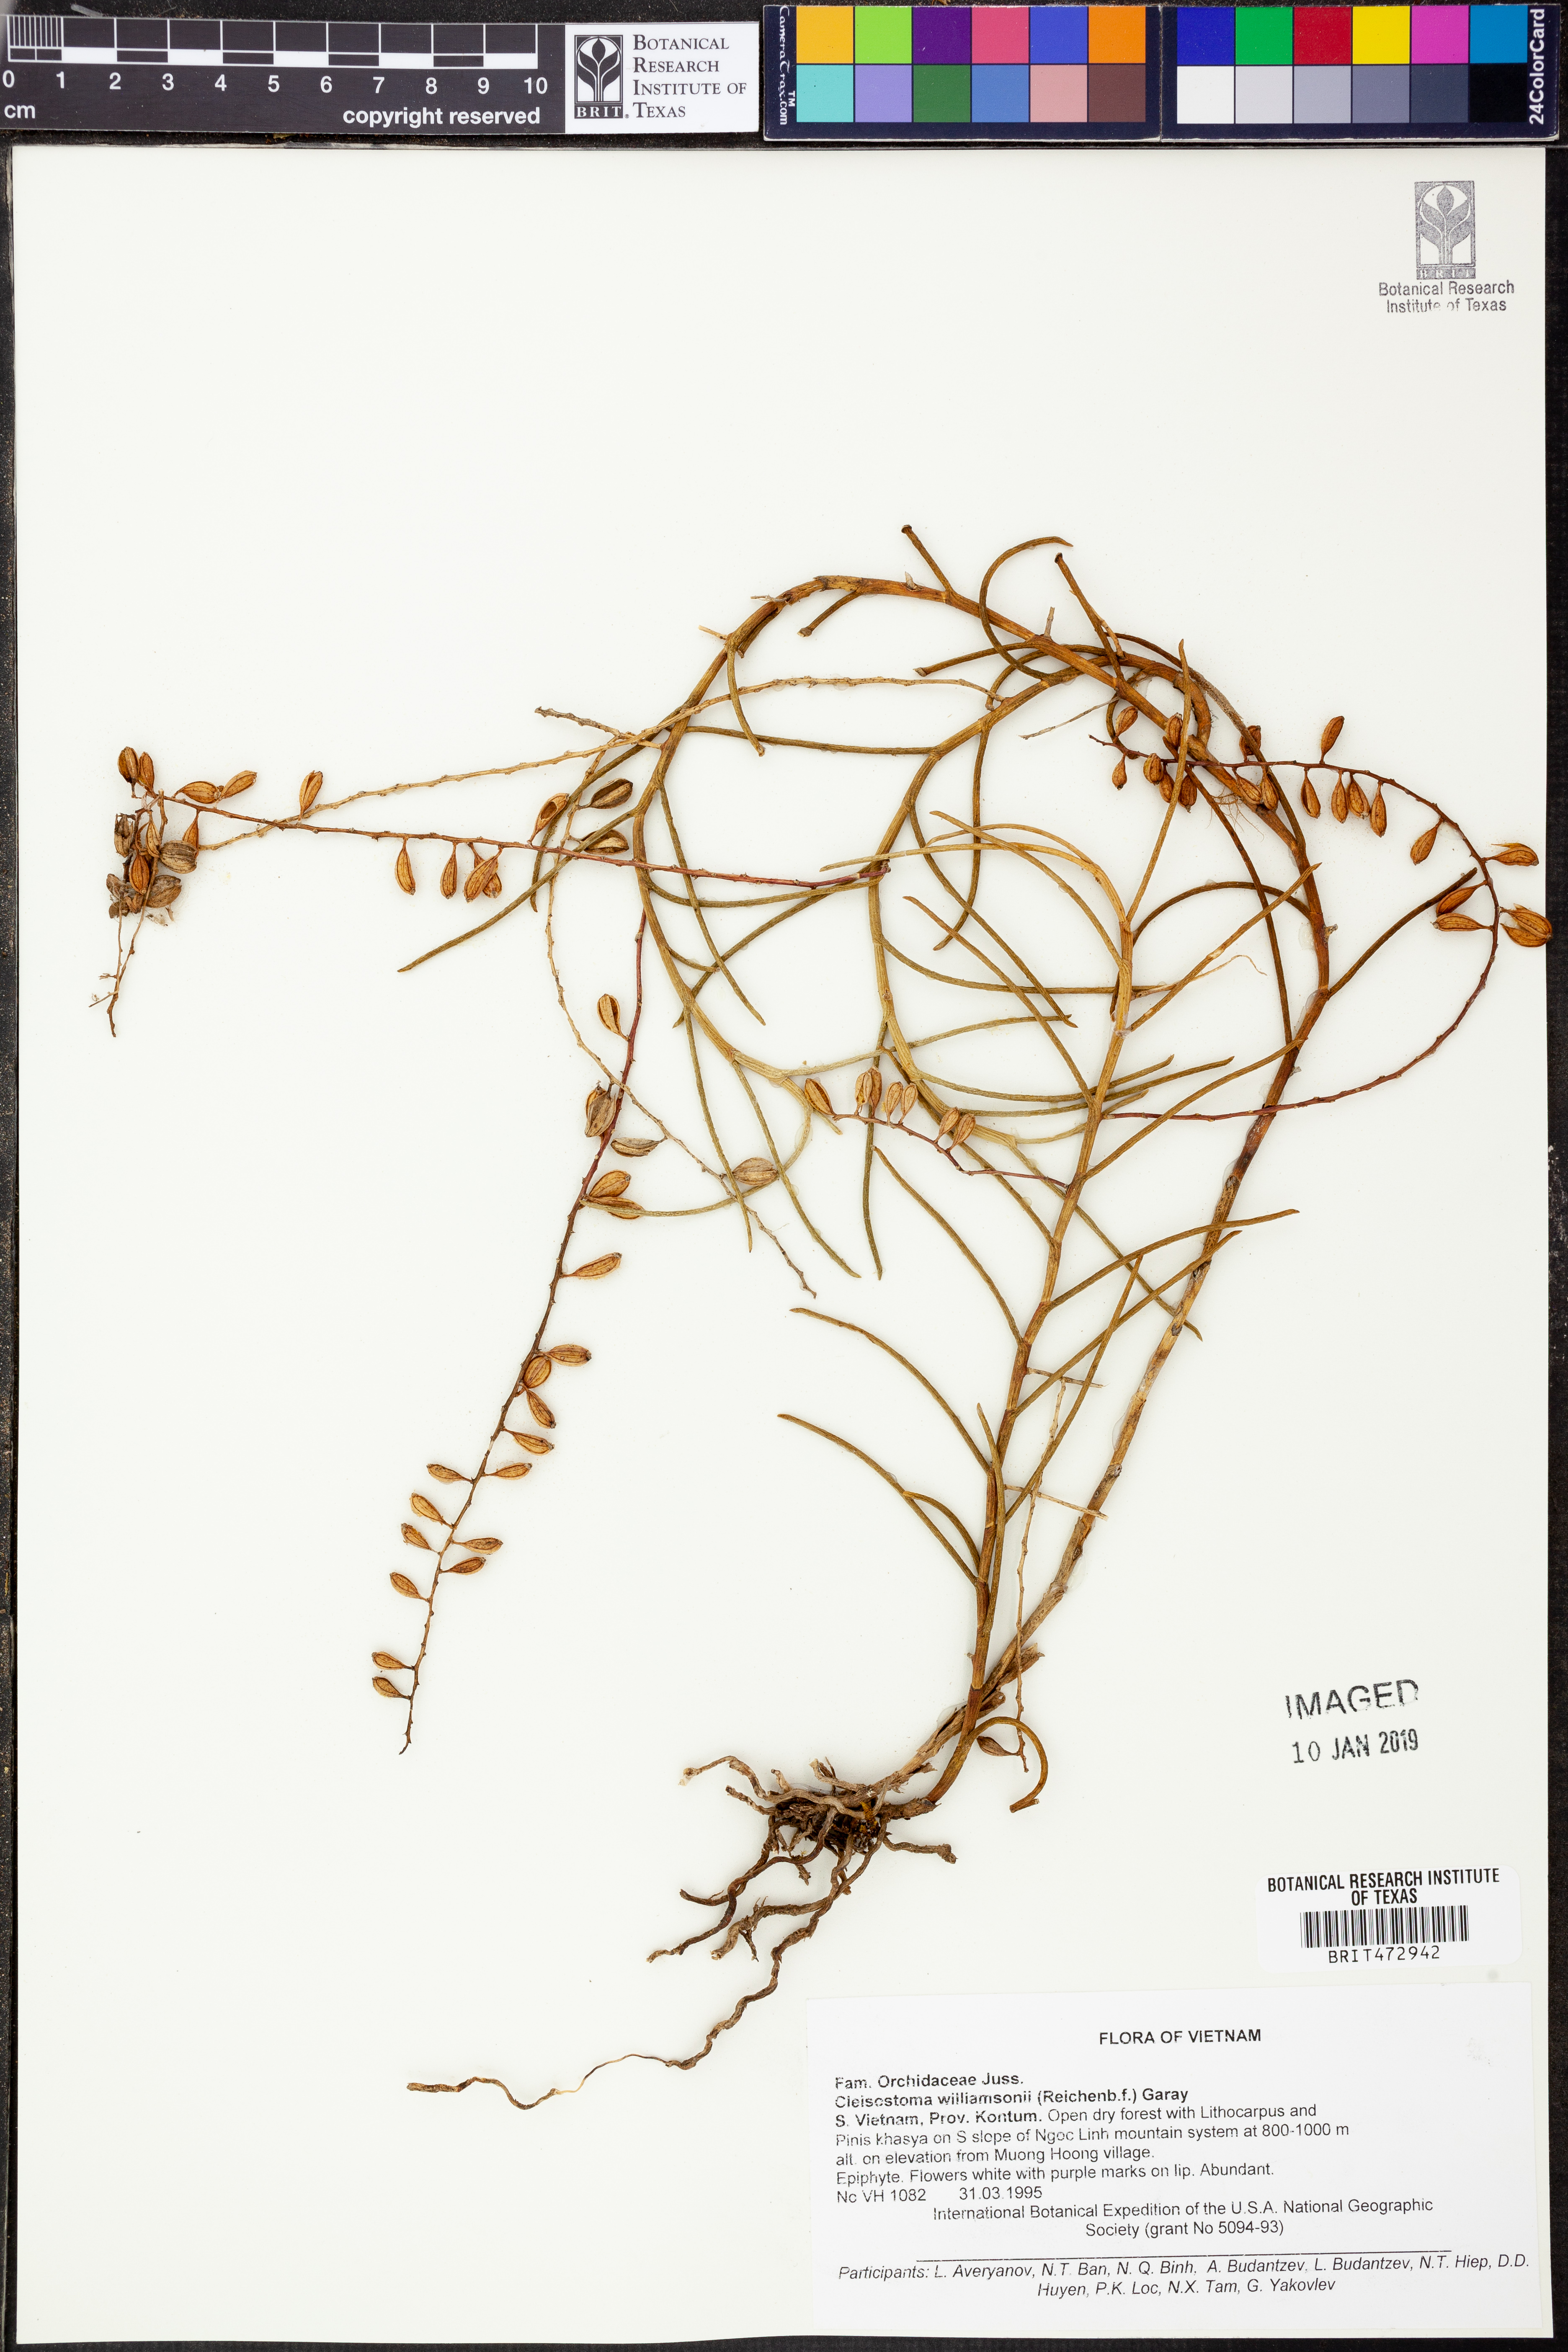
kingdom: Plantae
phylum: Tracheophyta
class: Liliopsida
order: Asparagales
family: Orchidaceae
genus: Cleisostoma
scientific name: Cleisostoma williamsonii
